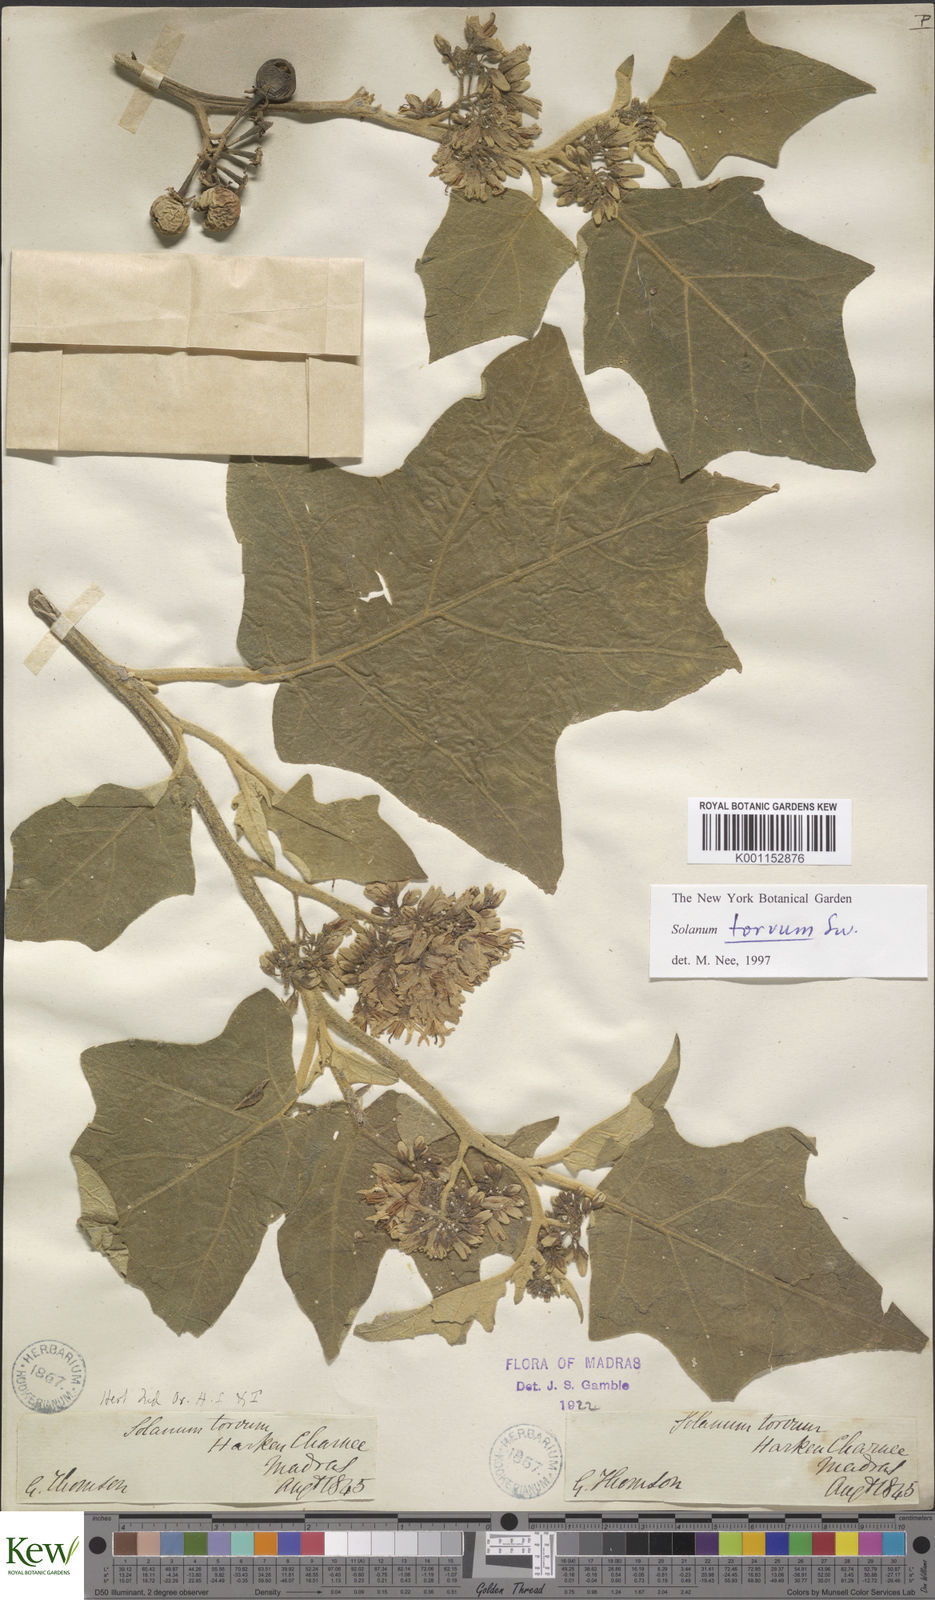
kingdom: Plantae
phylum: Tracheophyta
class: Magnoliopsida
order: Solanales
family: Solanaceae
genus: Solanum
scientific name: Solanum torvum
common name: Turkey berry
